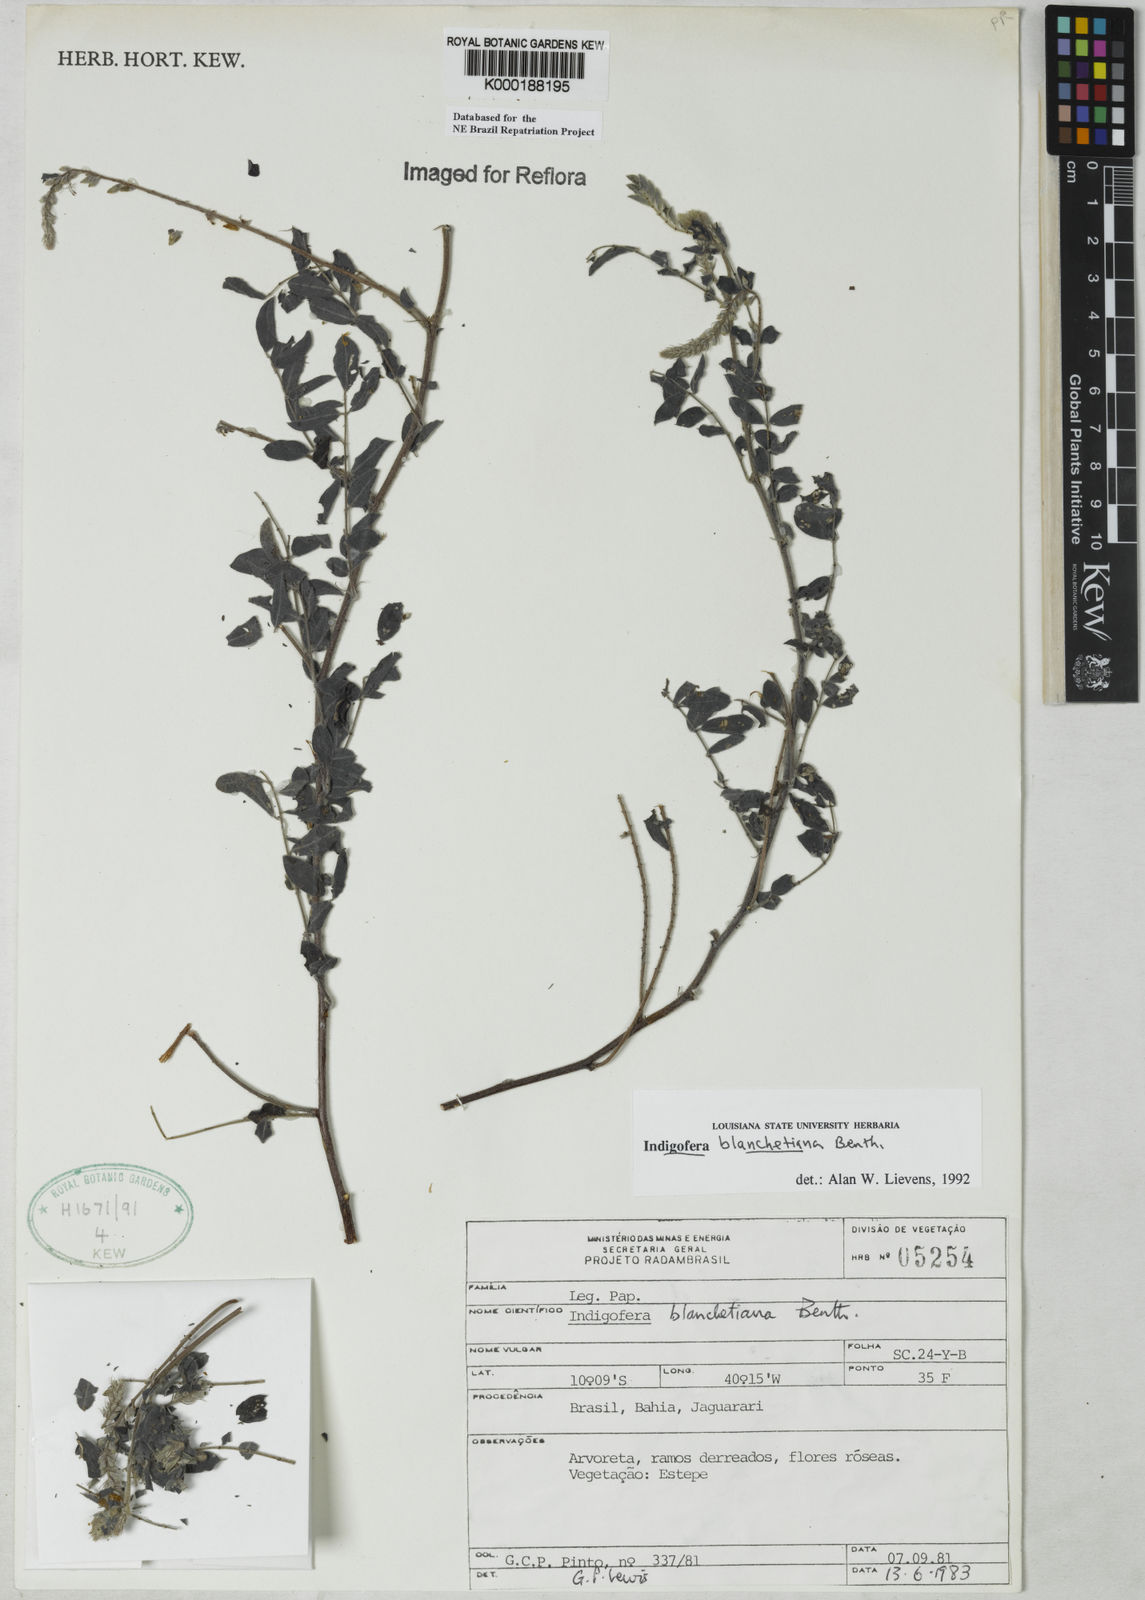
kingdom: Plantae
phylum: Tracheophyta
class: Magnoliopsida
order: Fabales
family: Fabaceae
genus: Indigofera
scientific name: Indigofera blanchetiana
